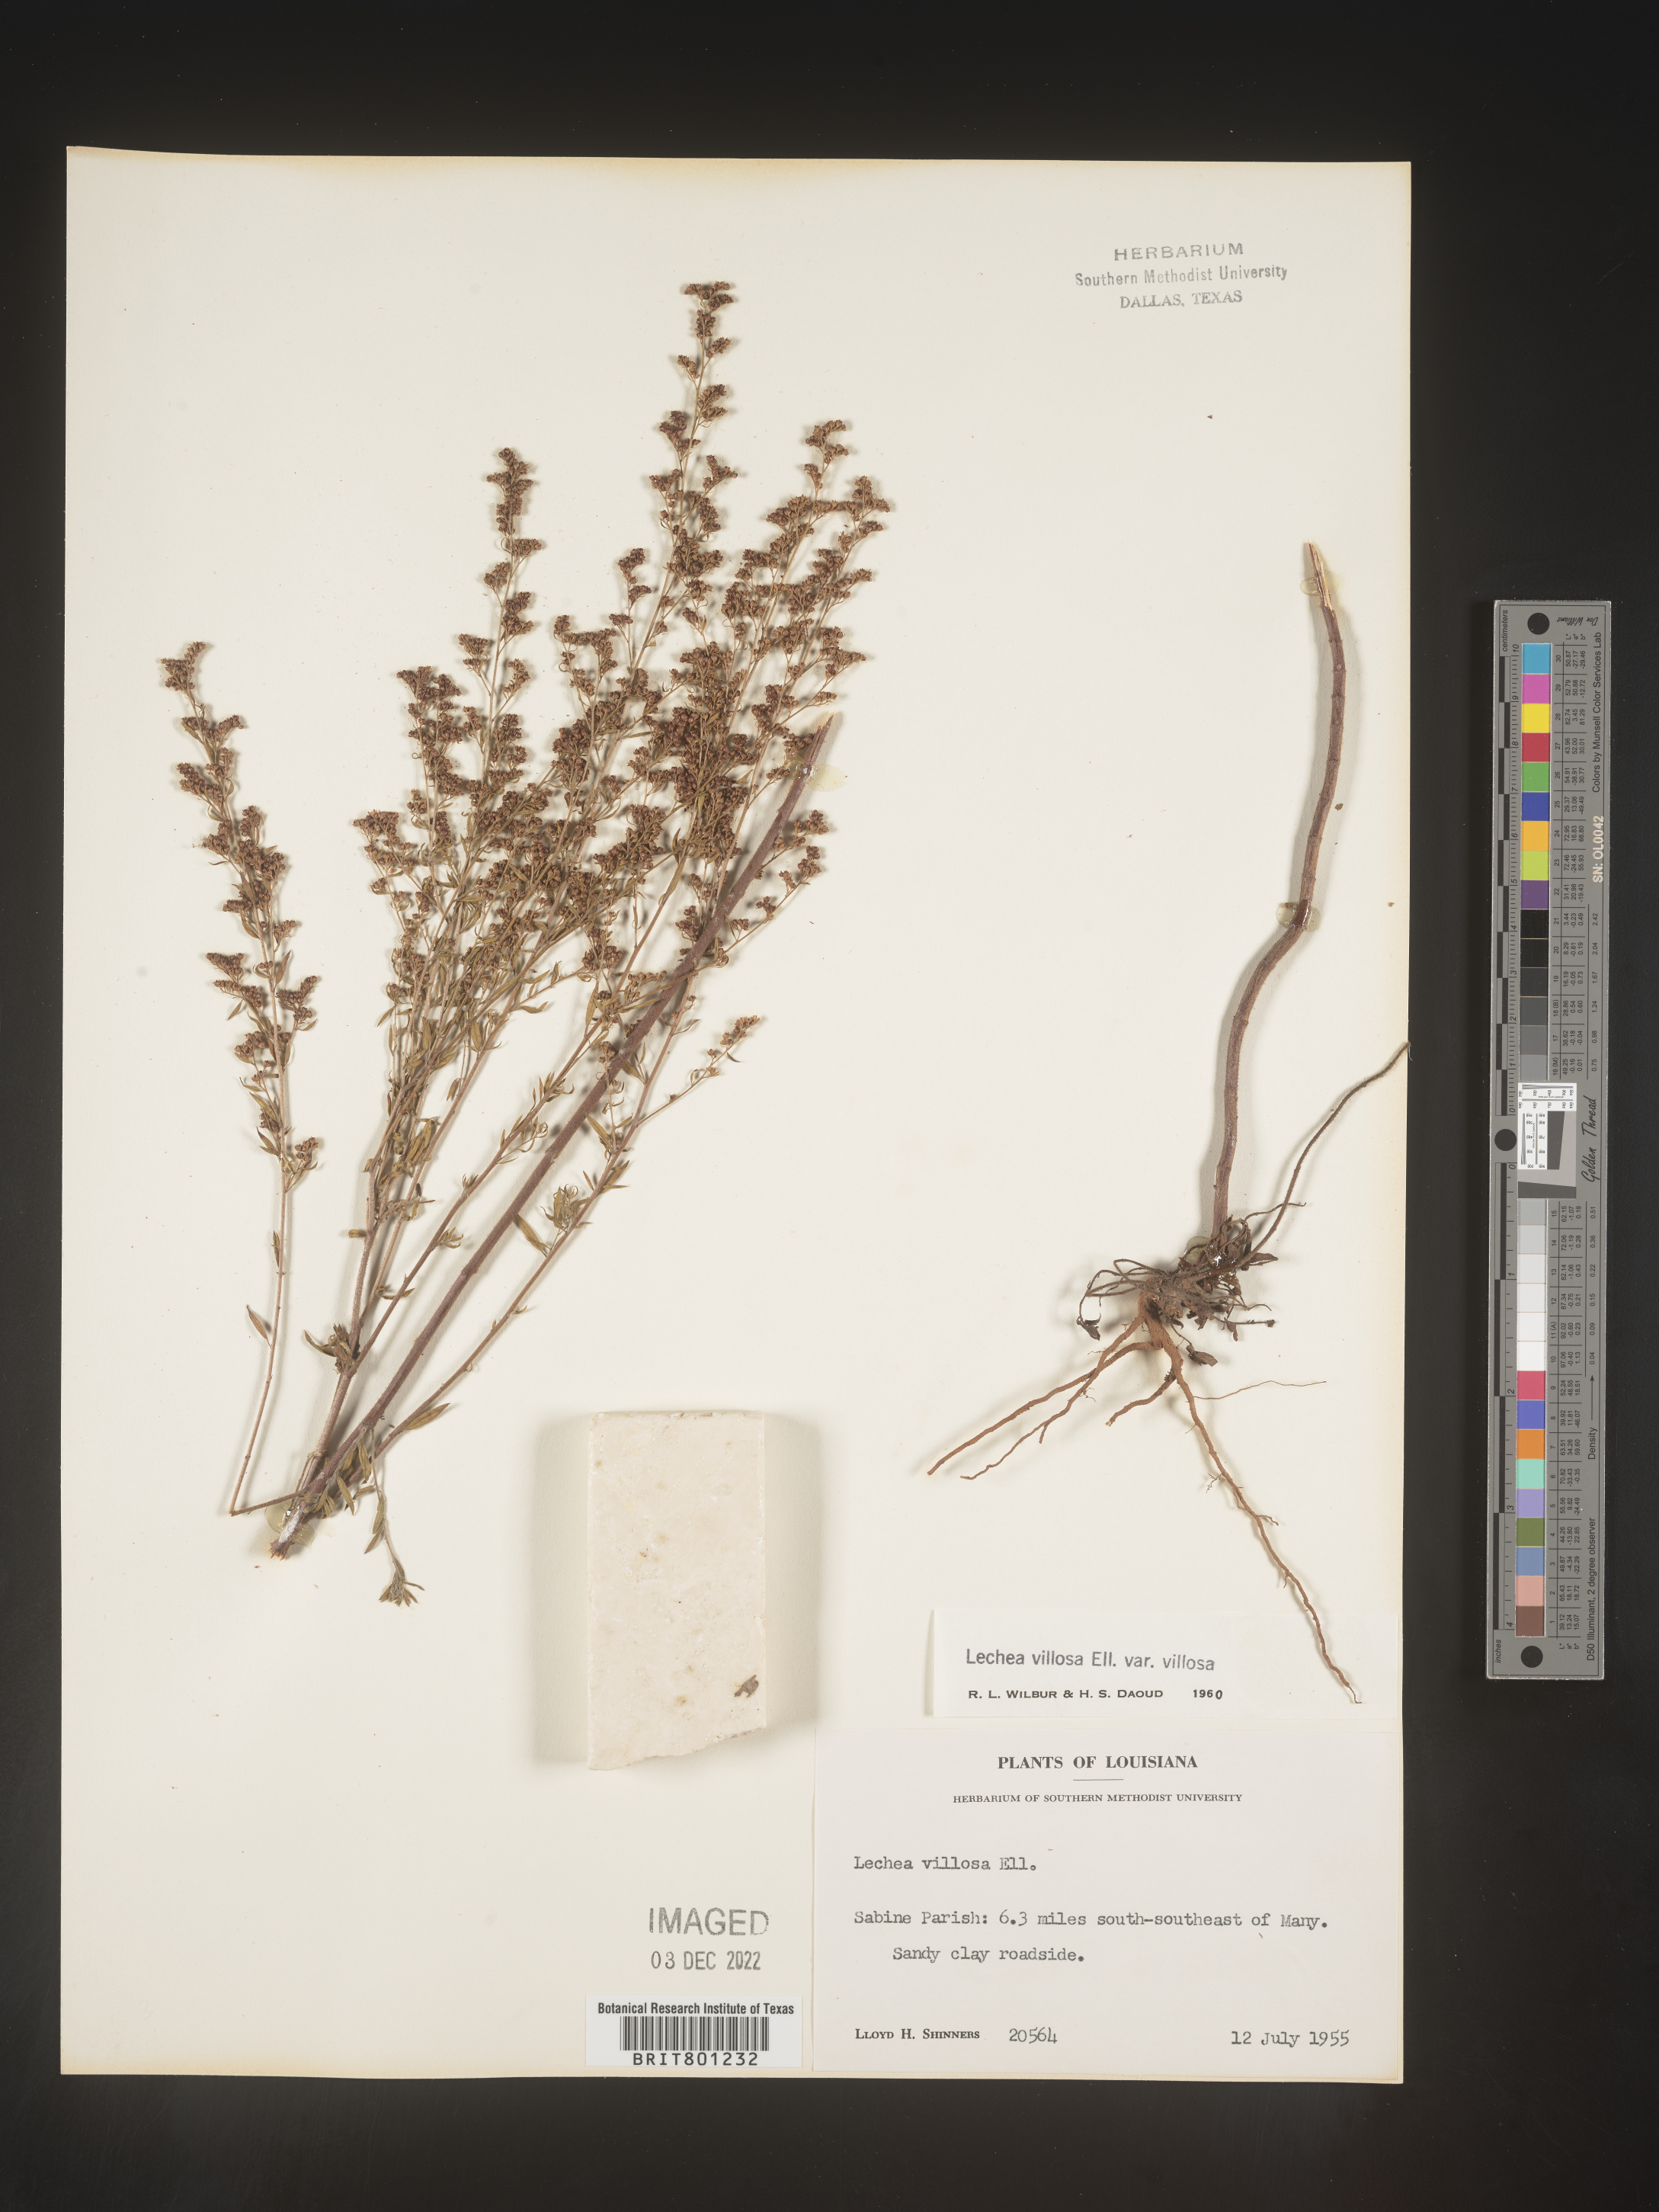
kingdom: Plantae
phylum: Tracheophyta
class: Magnoliopsida
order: Malvales
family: Cistaceae
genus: Lechea
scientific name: Lechea mucronata
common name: Hairy pinweed
